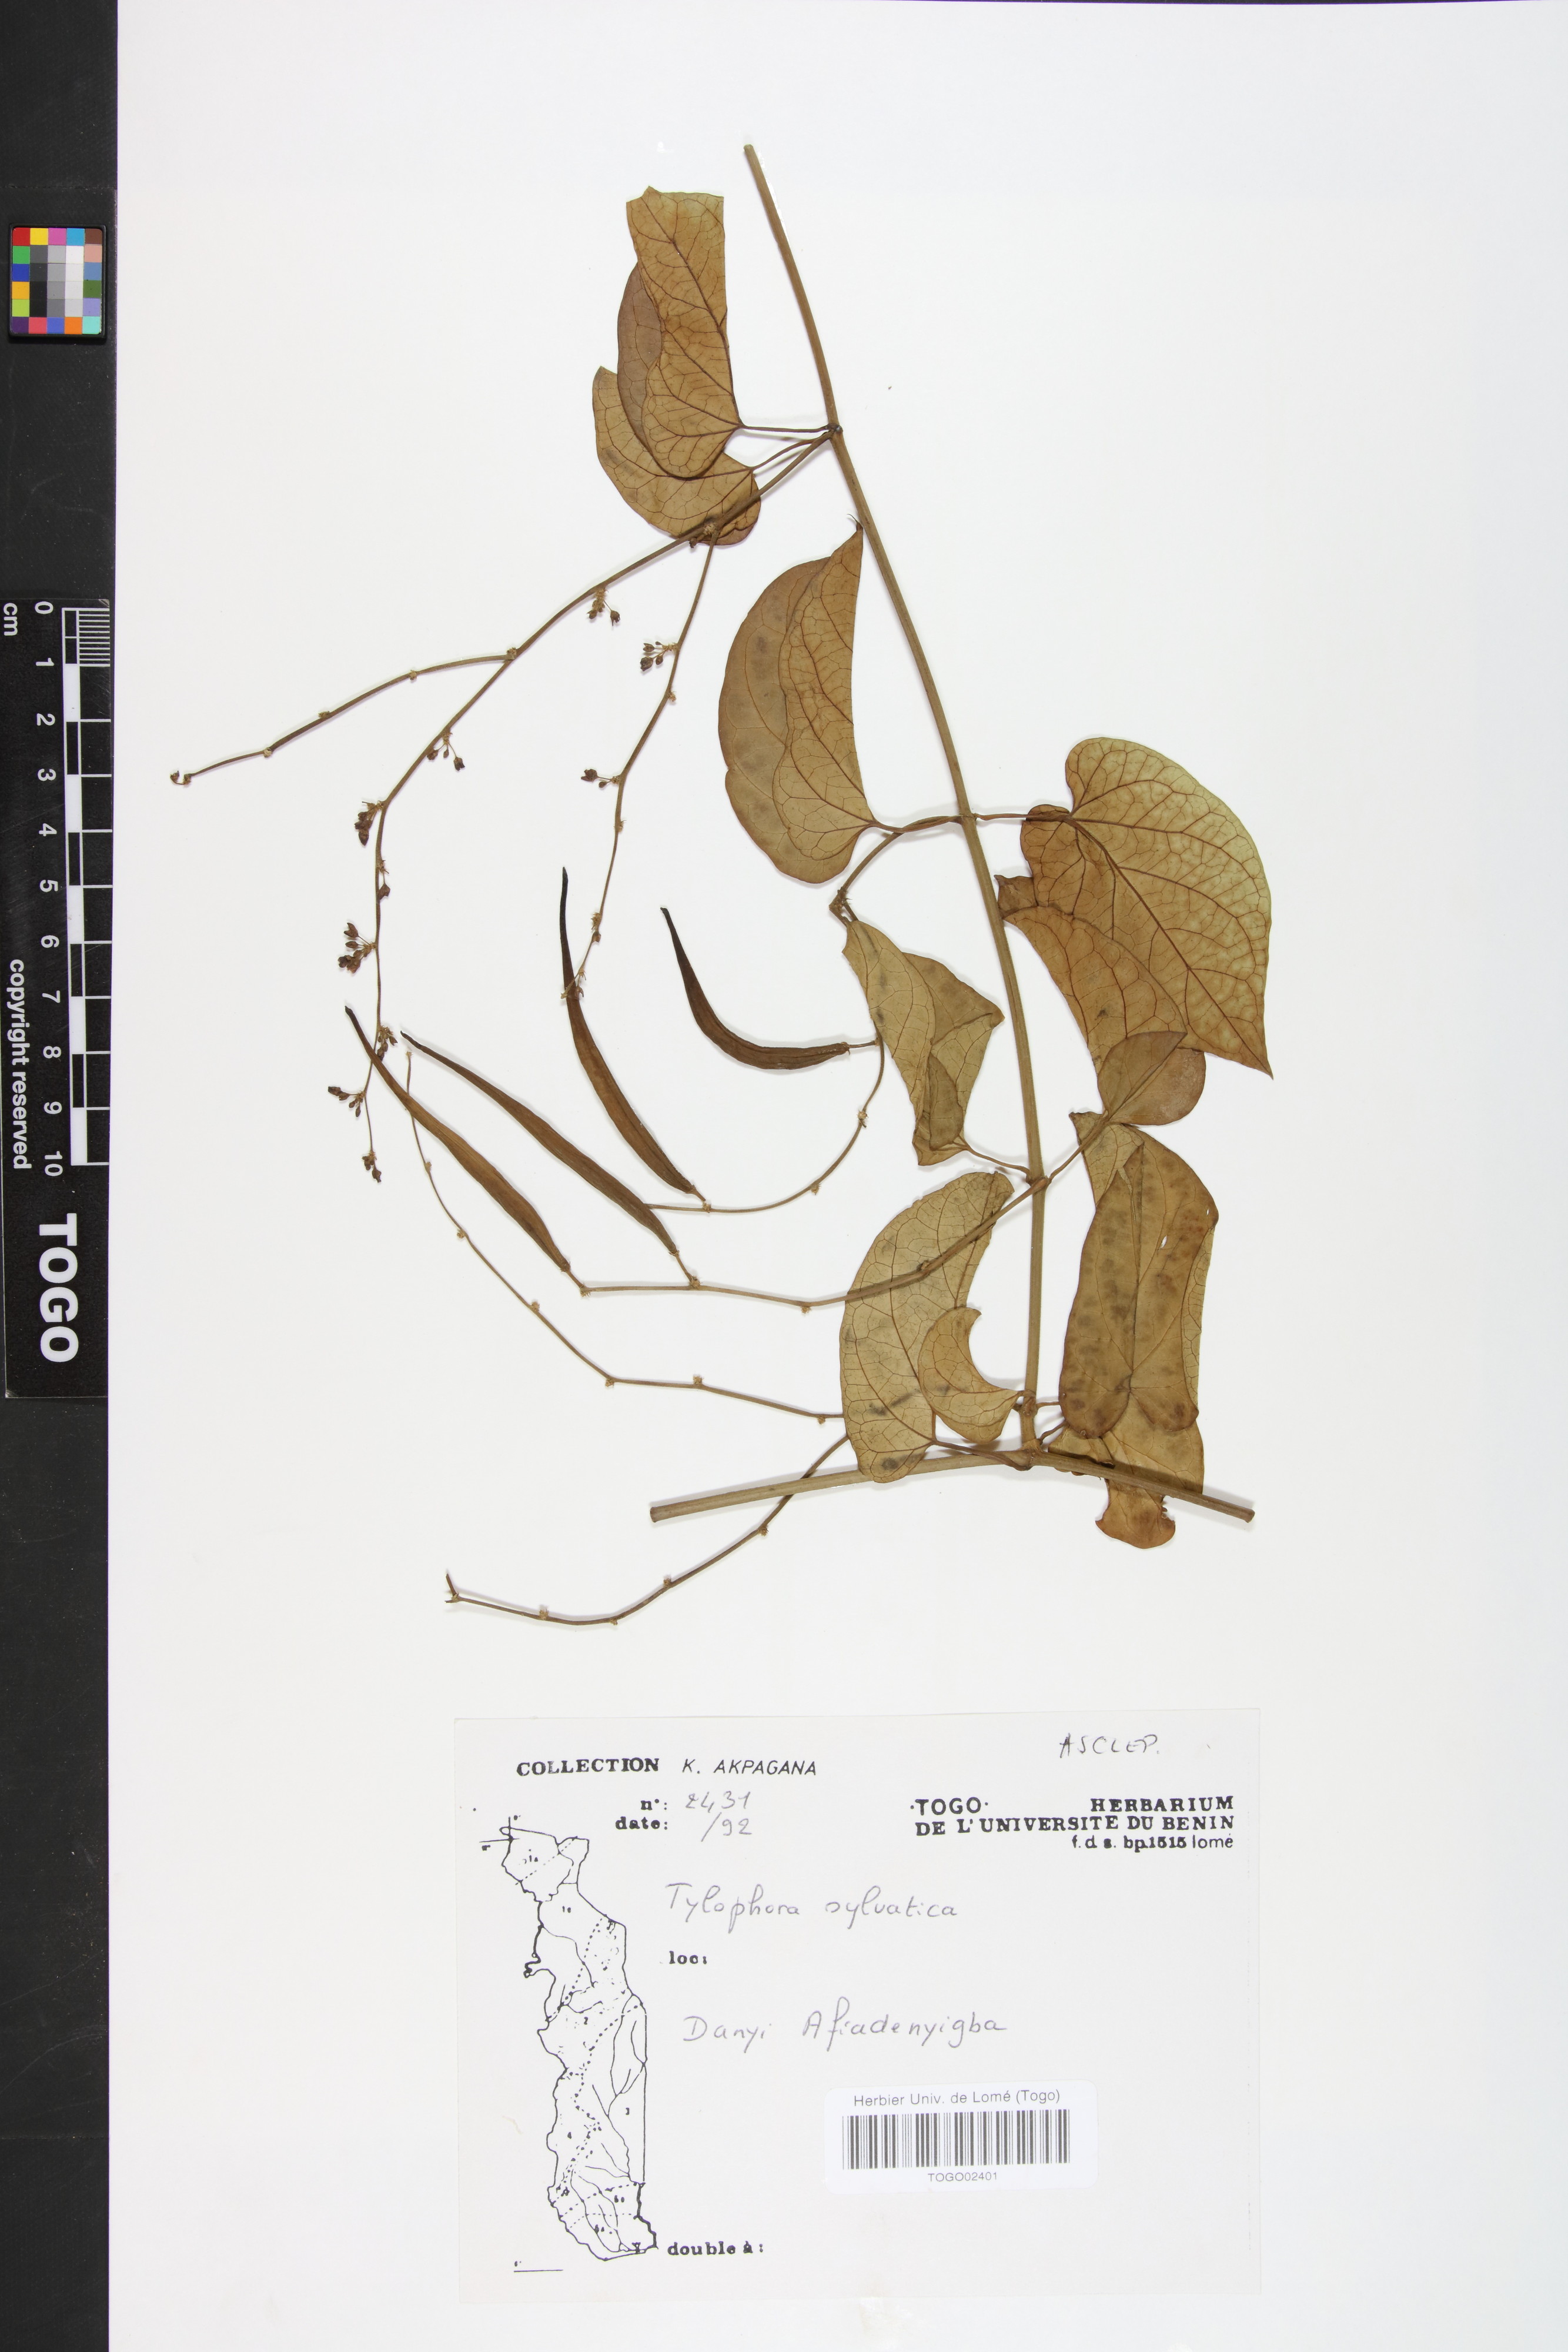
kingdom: Plantae
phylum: Tracheophyta
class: Magnoliopsida
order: Gentianales
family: Apocynaceae
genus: Vincetoxicum
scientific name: Vincetoxicum sylvaticum
